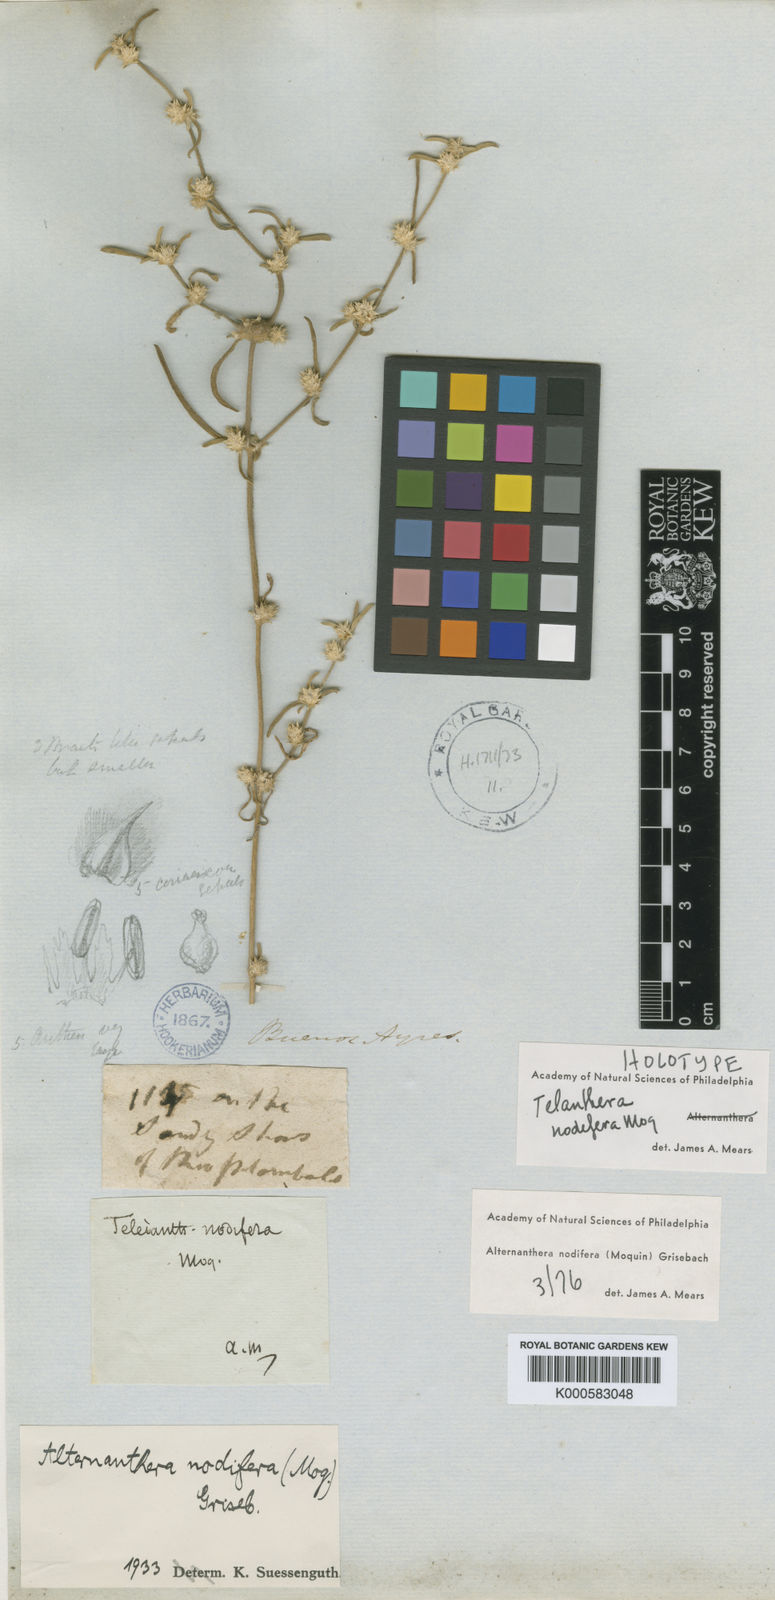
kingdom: Plantae
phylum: Tracheophyta
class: Magnoliopsida
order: Caryophyllales
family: Amaranthaceae
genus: Alternanthera
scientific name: Alternanthera nodifera
